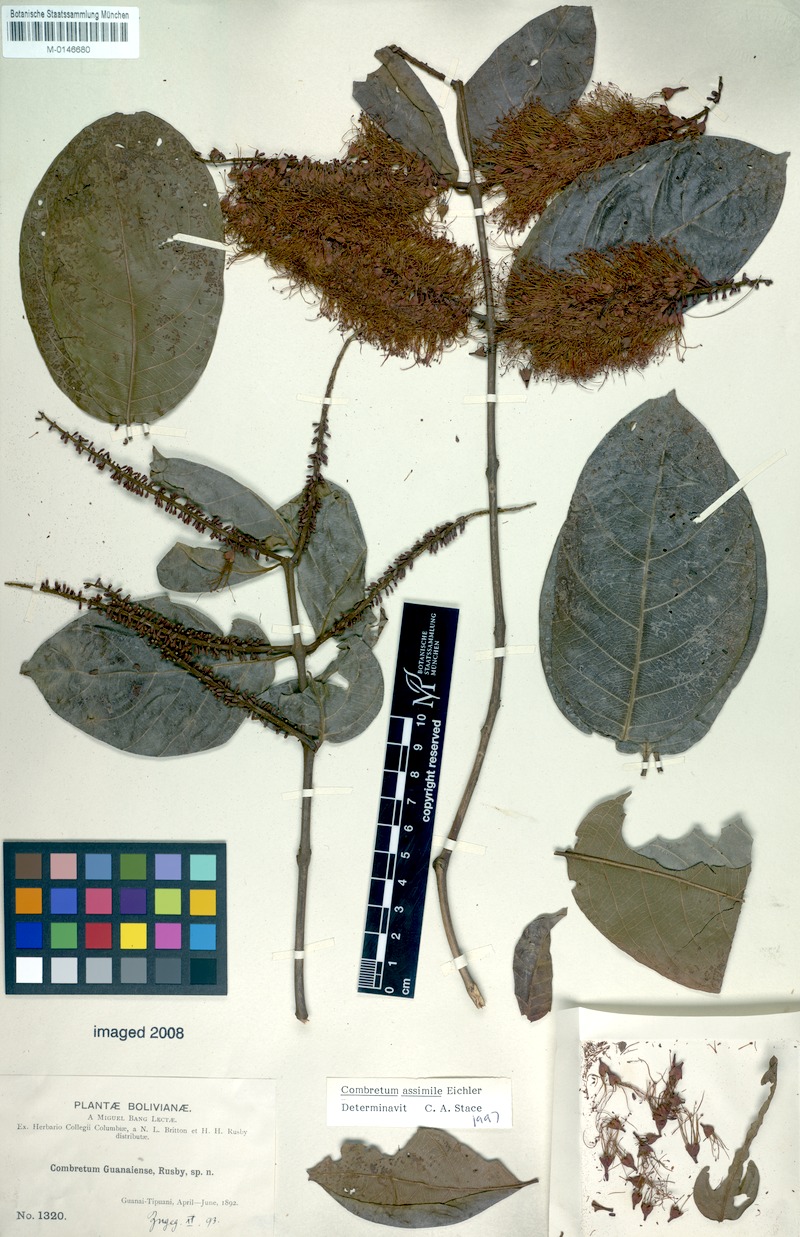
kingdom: Plantae
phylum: Tracheophyta
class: Magnoliopsida
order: Myrtales
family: Combretaceae
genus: Combretum
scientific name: Combretum assimile
